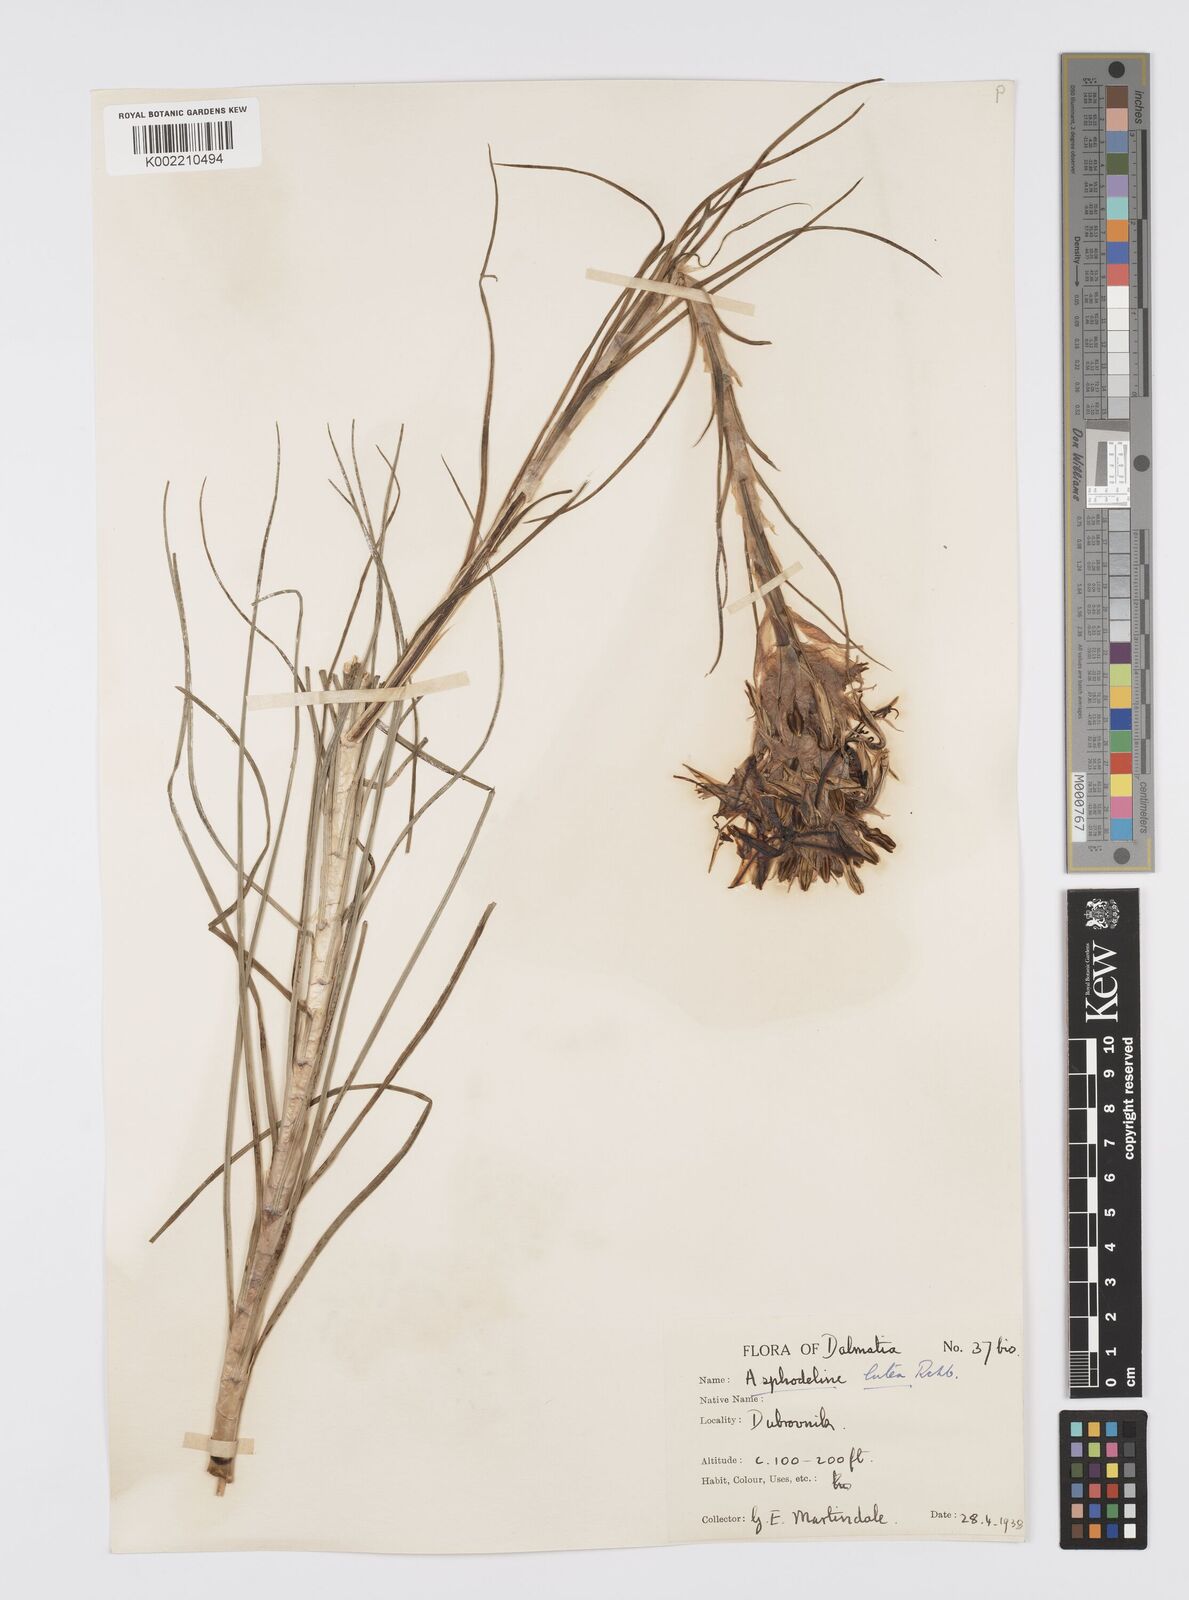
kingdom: Plantae
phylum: Tracheophyta
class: Liliopsida
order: Asparagales
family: Asphodelaceae
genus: Asphodeline
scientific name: Asphodeline lutea
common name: Yellow asphodel
